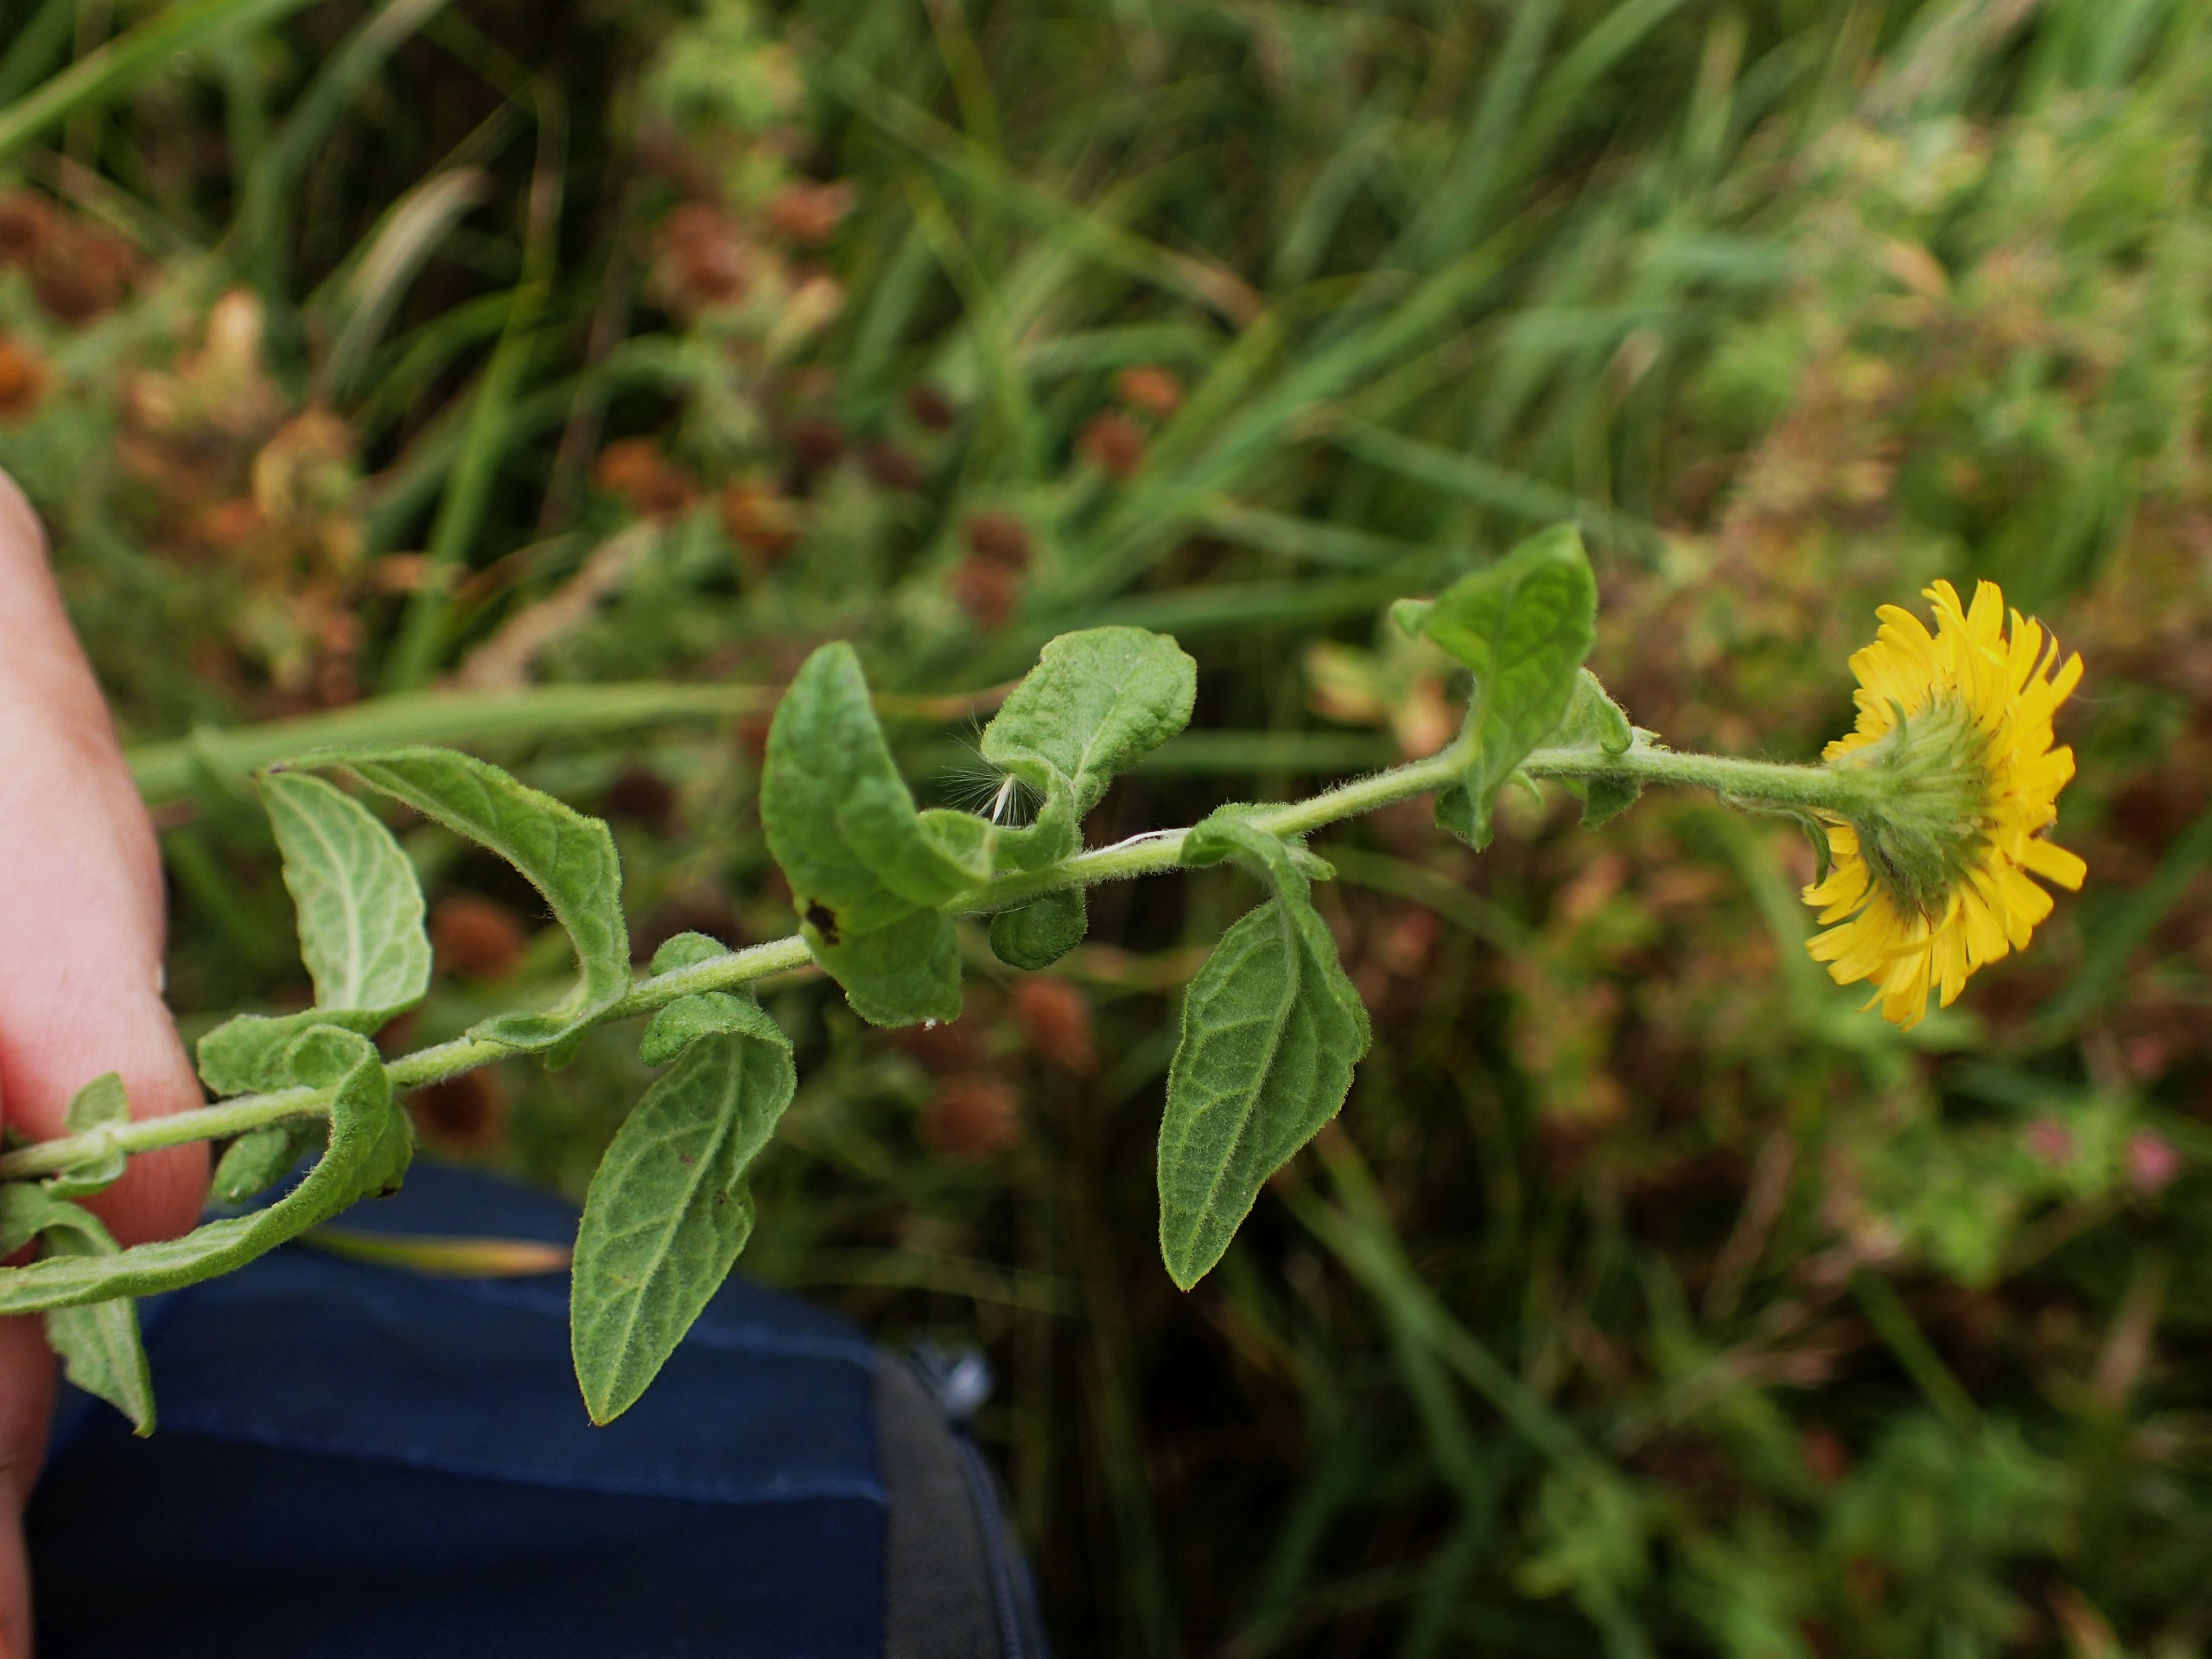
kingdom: Plantae
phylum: Tracheophyta
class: Magnoliopsida
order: Asterales
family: Asteraceae
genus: Pulicaria
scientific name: Pulicaria dysenterica
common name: Strand-loppeurt
